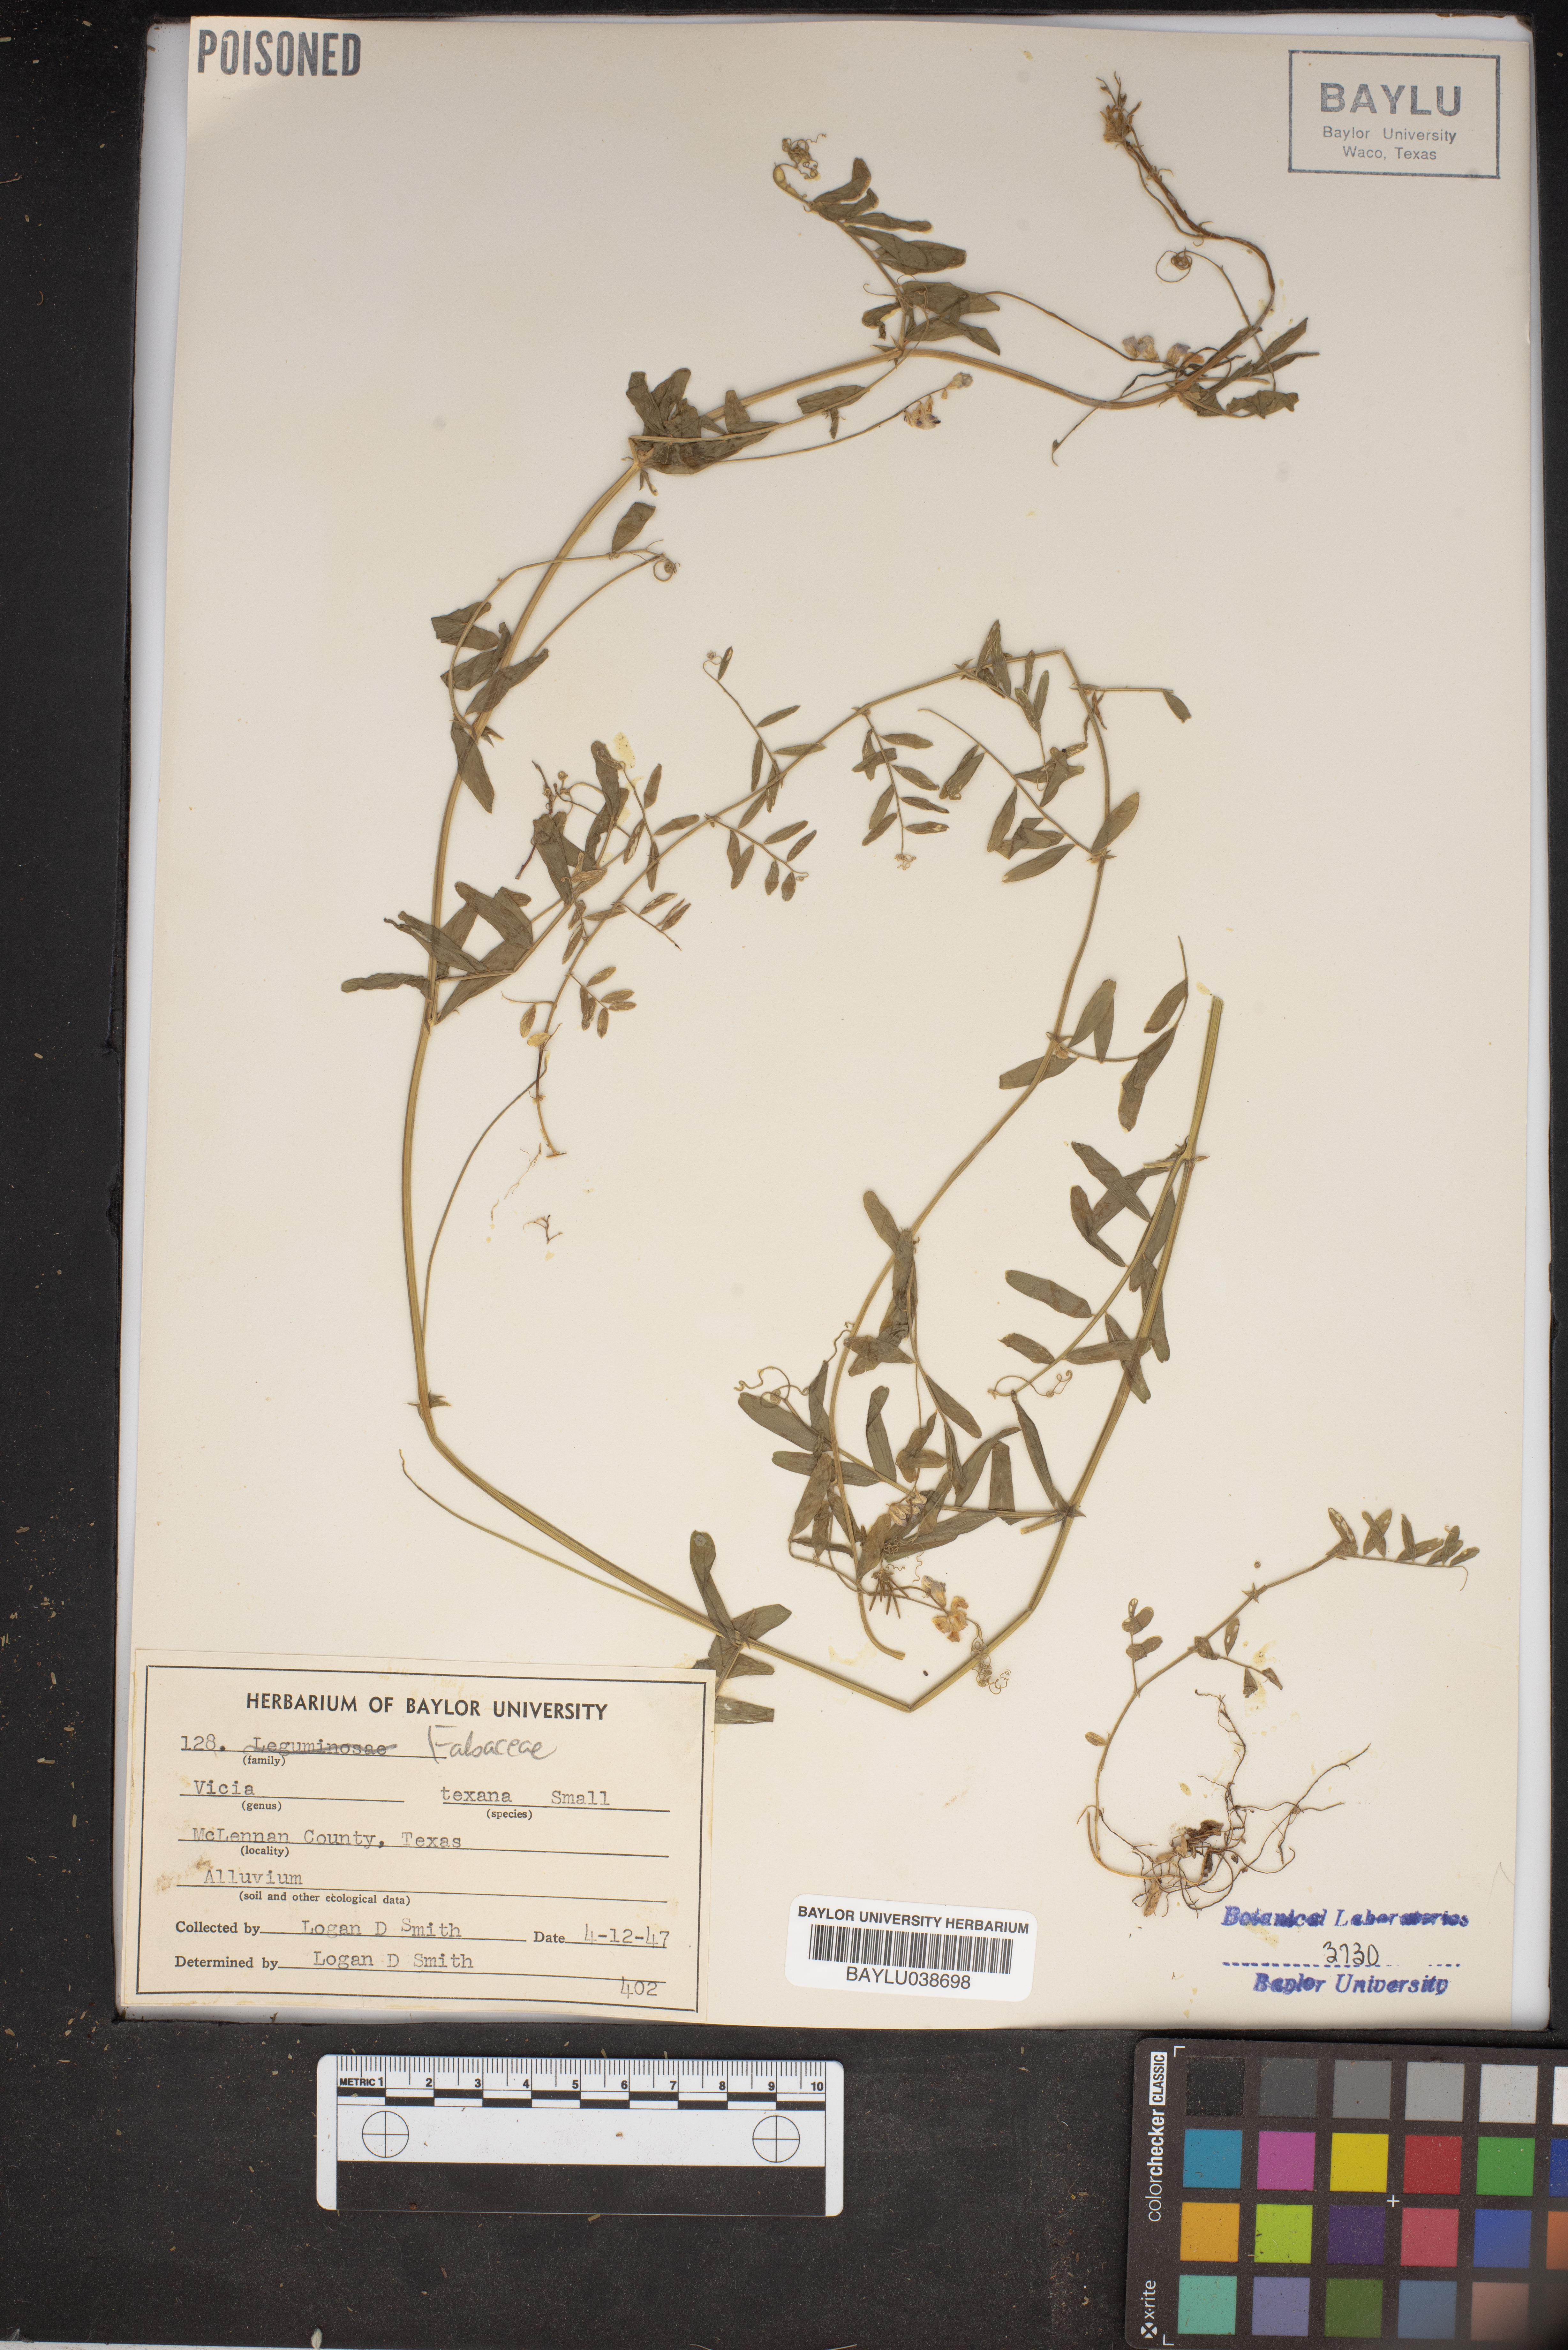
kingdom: Plantae
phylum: Tracheophyta
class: Magnoliopsida
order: Fabales
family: Fabaceae
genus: Vicia
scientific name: Vicia ludoviciana
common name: Louisiana vetch
